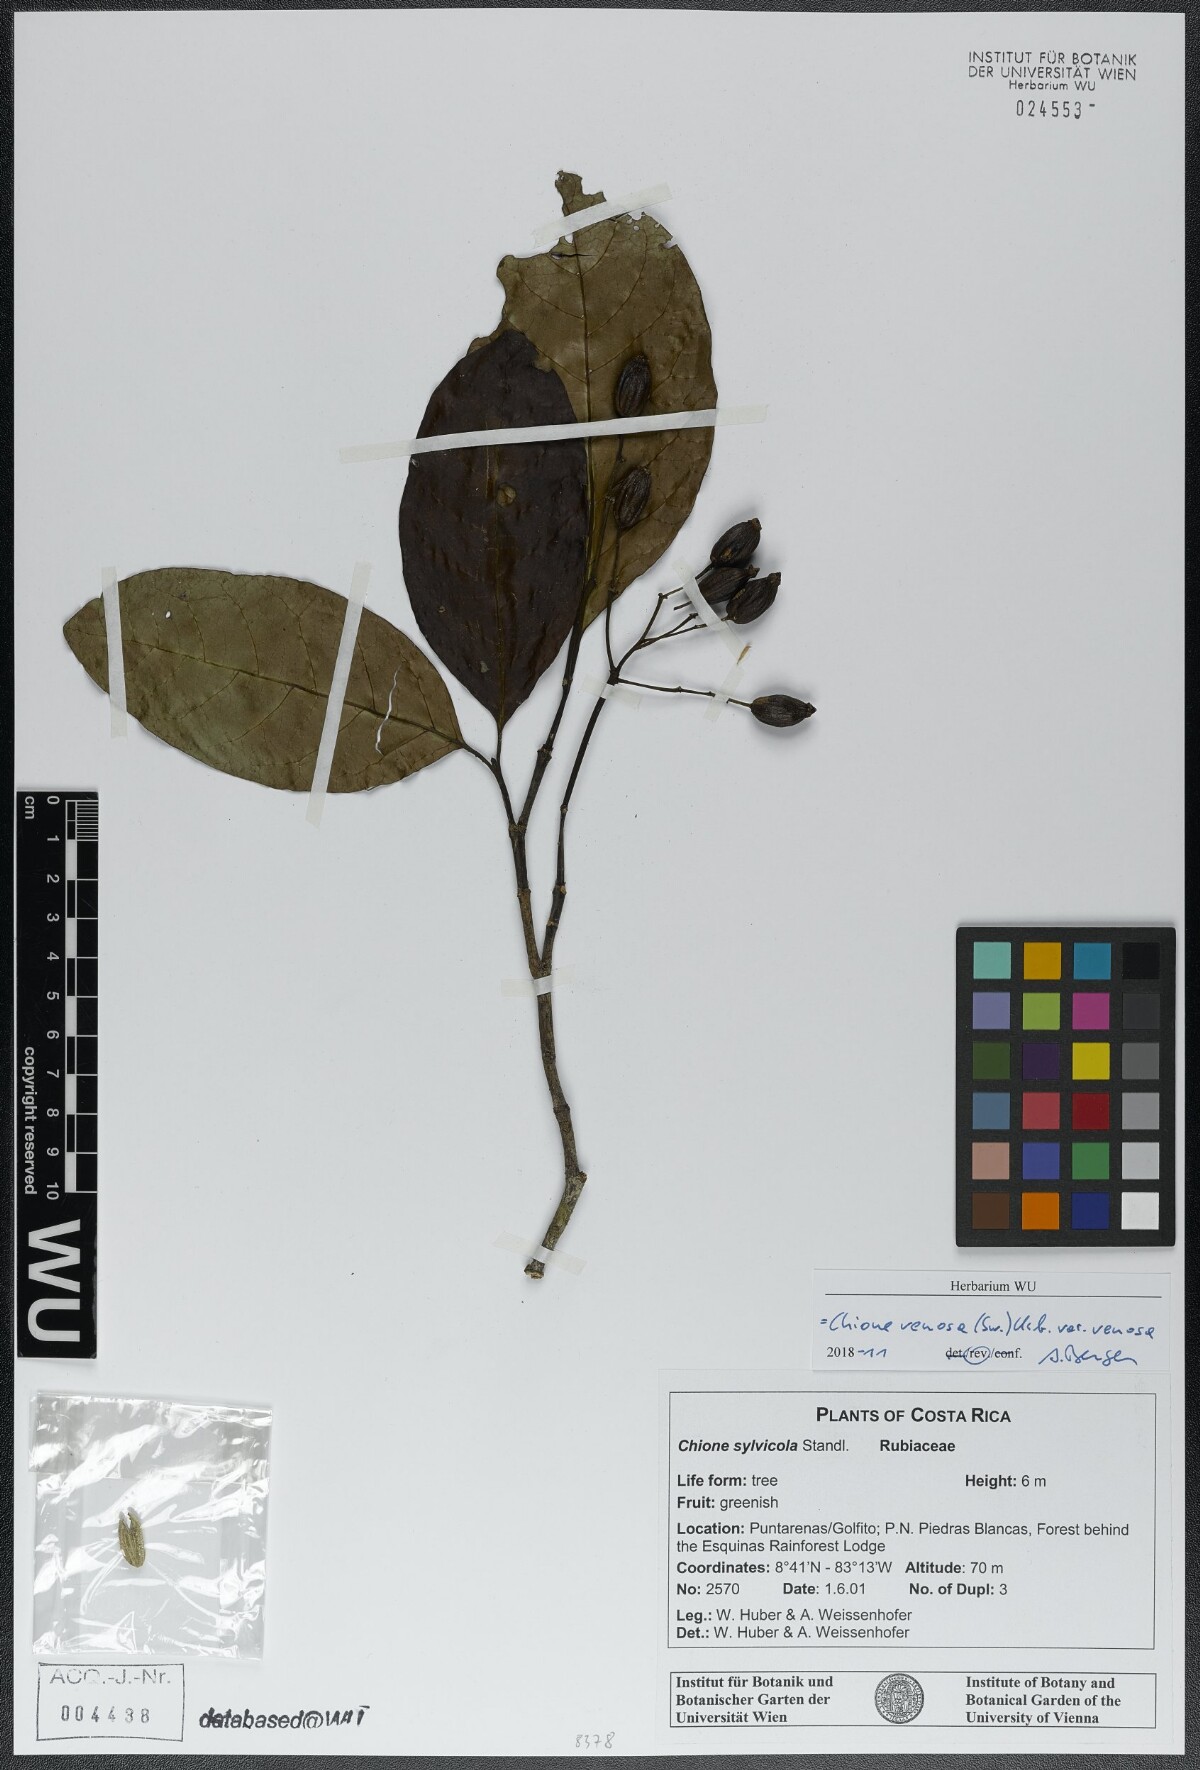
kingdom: Plantae
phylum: Tracheophyta
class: Magnoliopsida
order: Gentianales
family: Rubiaceae
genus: Chione
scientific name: Chione venosa
